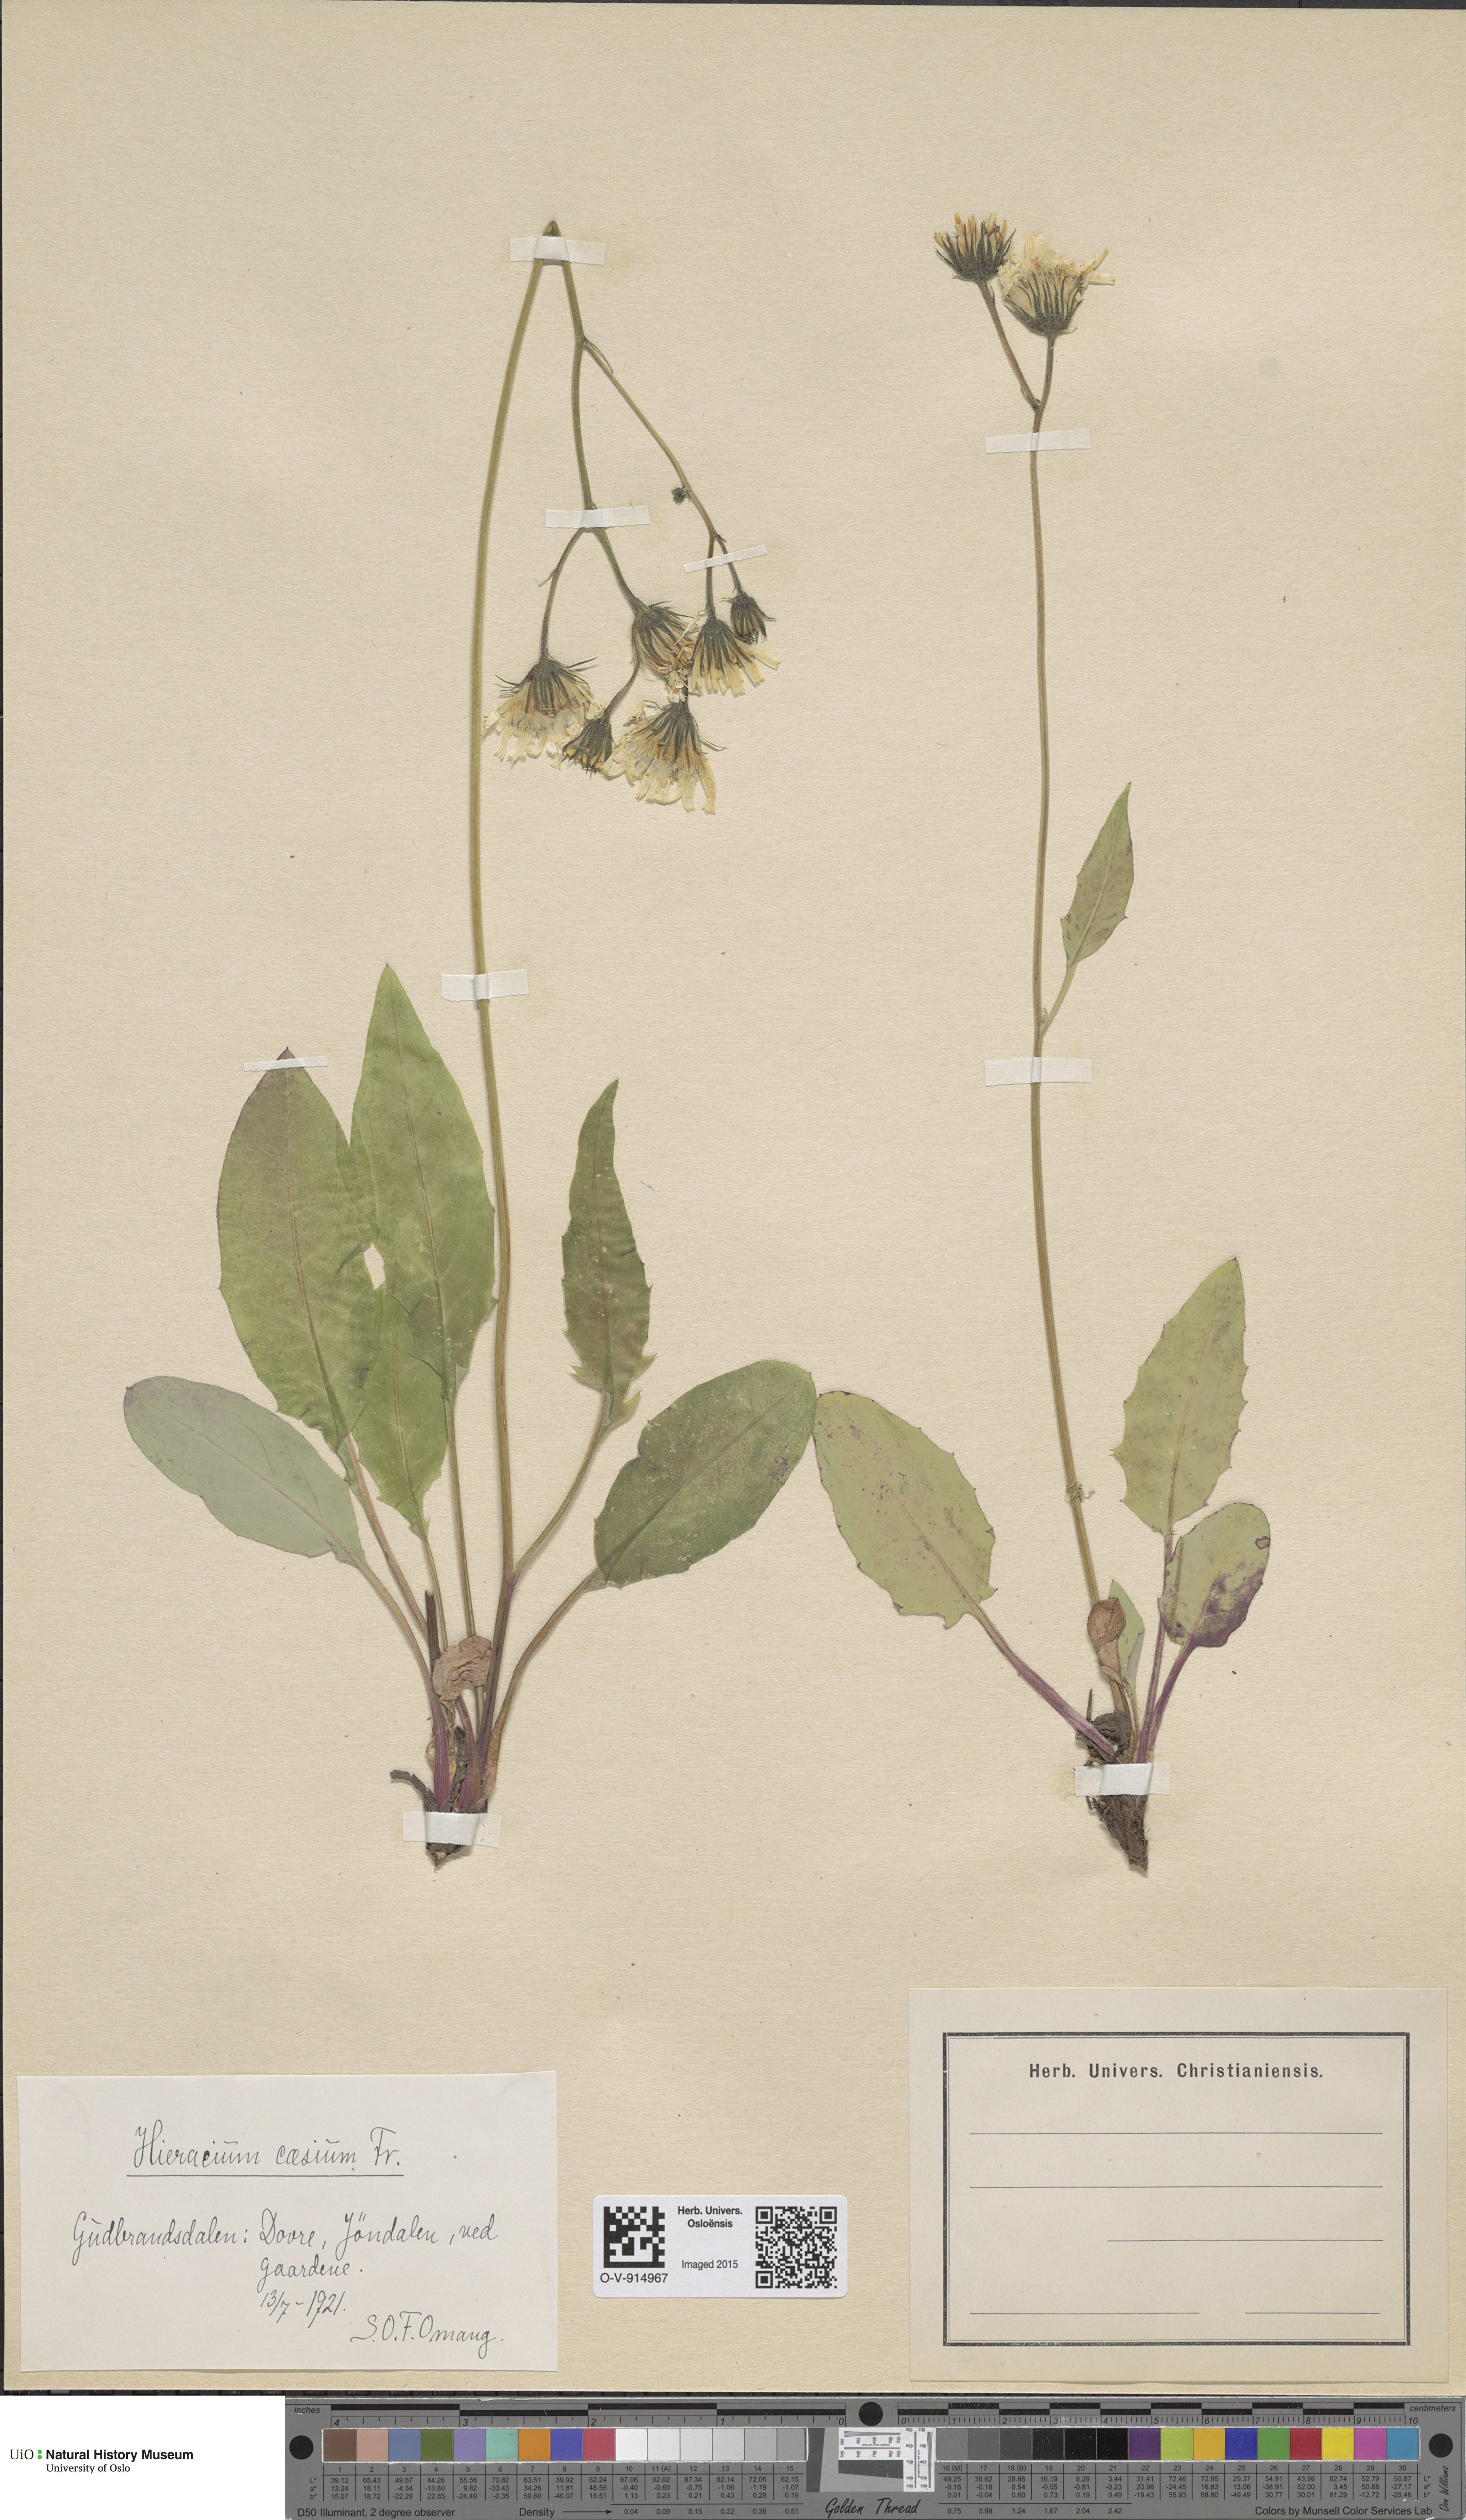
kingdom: Plantae
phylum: Tracheophyta
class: Magnoliopsida
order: Asterales
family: Asteraceae
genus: Hieracium
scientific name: Hieracium caesium
